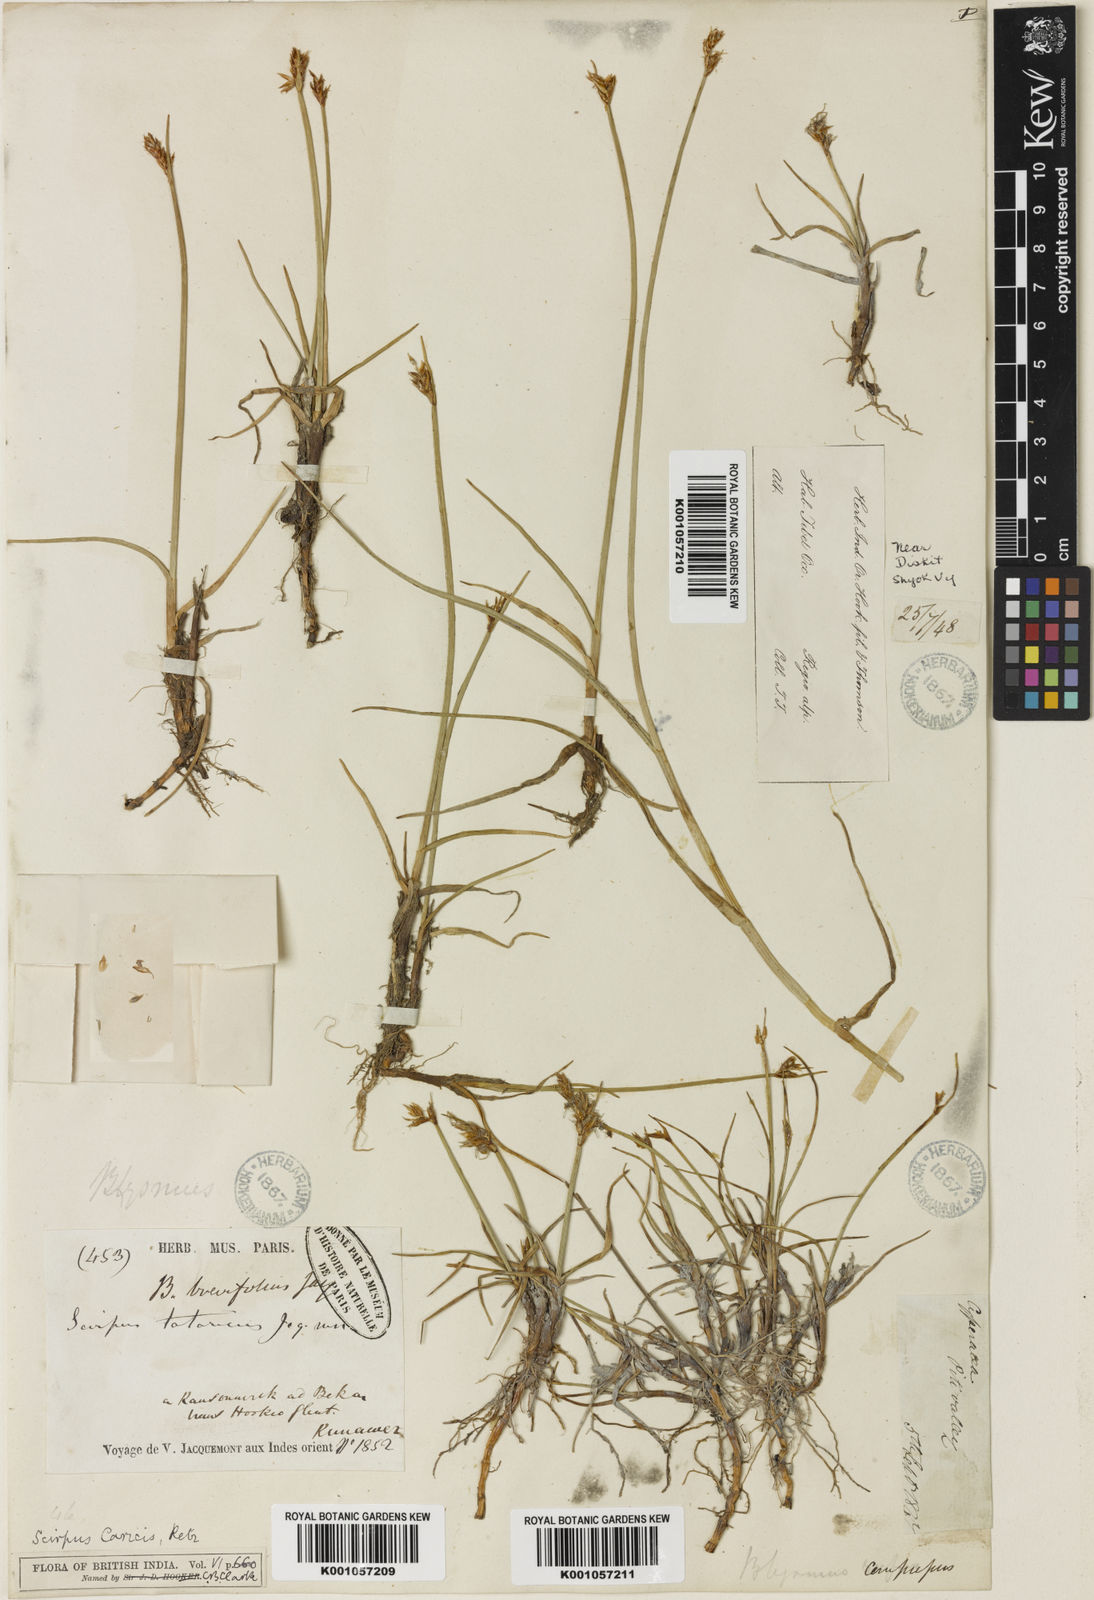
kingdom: Plantae
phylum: Tracheophyta
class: Liliopsida
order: Poales
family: Cyperaceae
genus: Blysmus
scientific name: Blysmus compressus
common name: Flat-sedge
